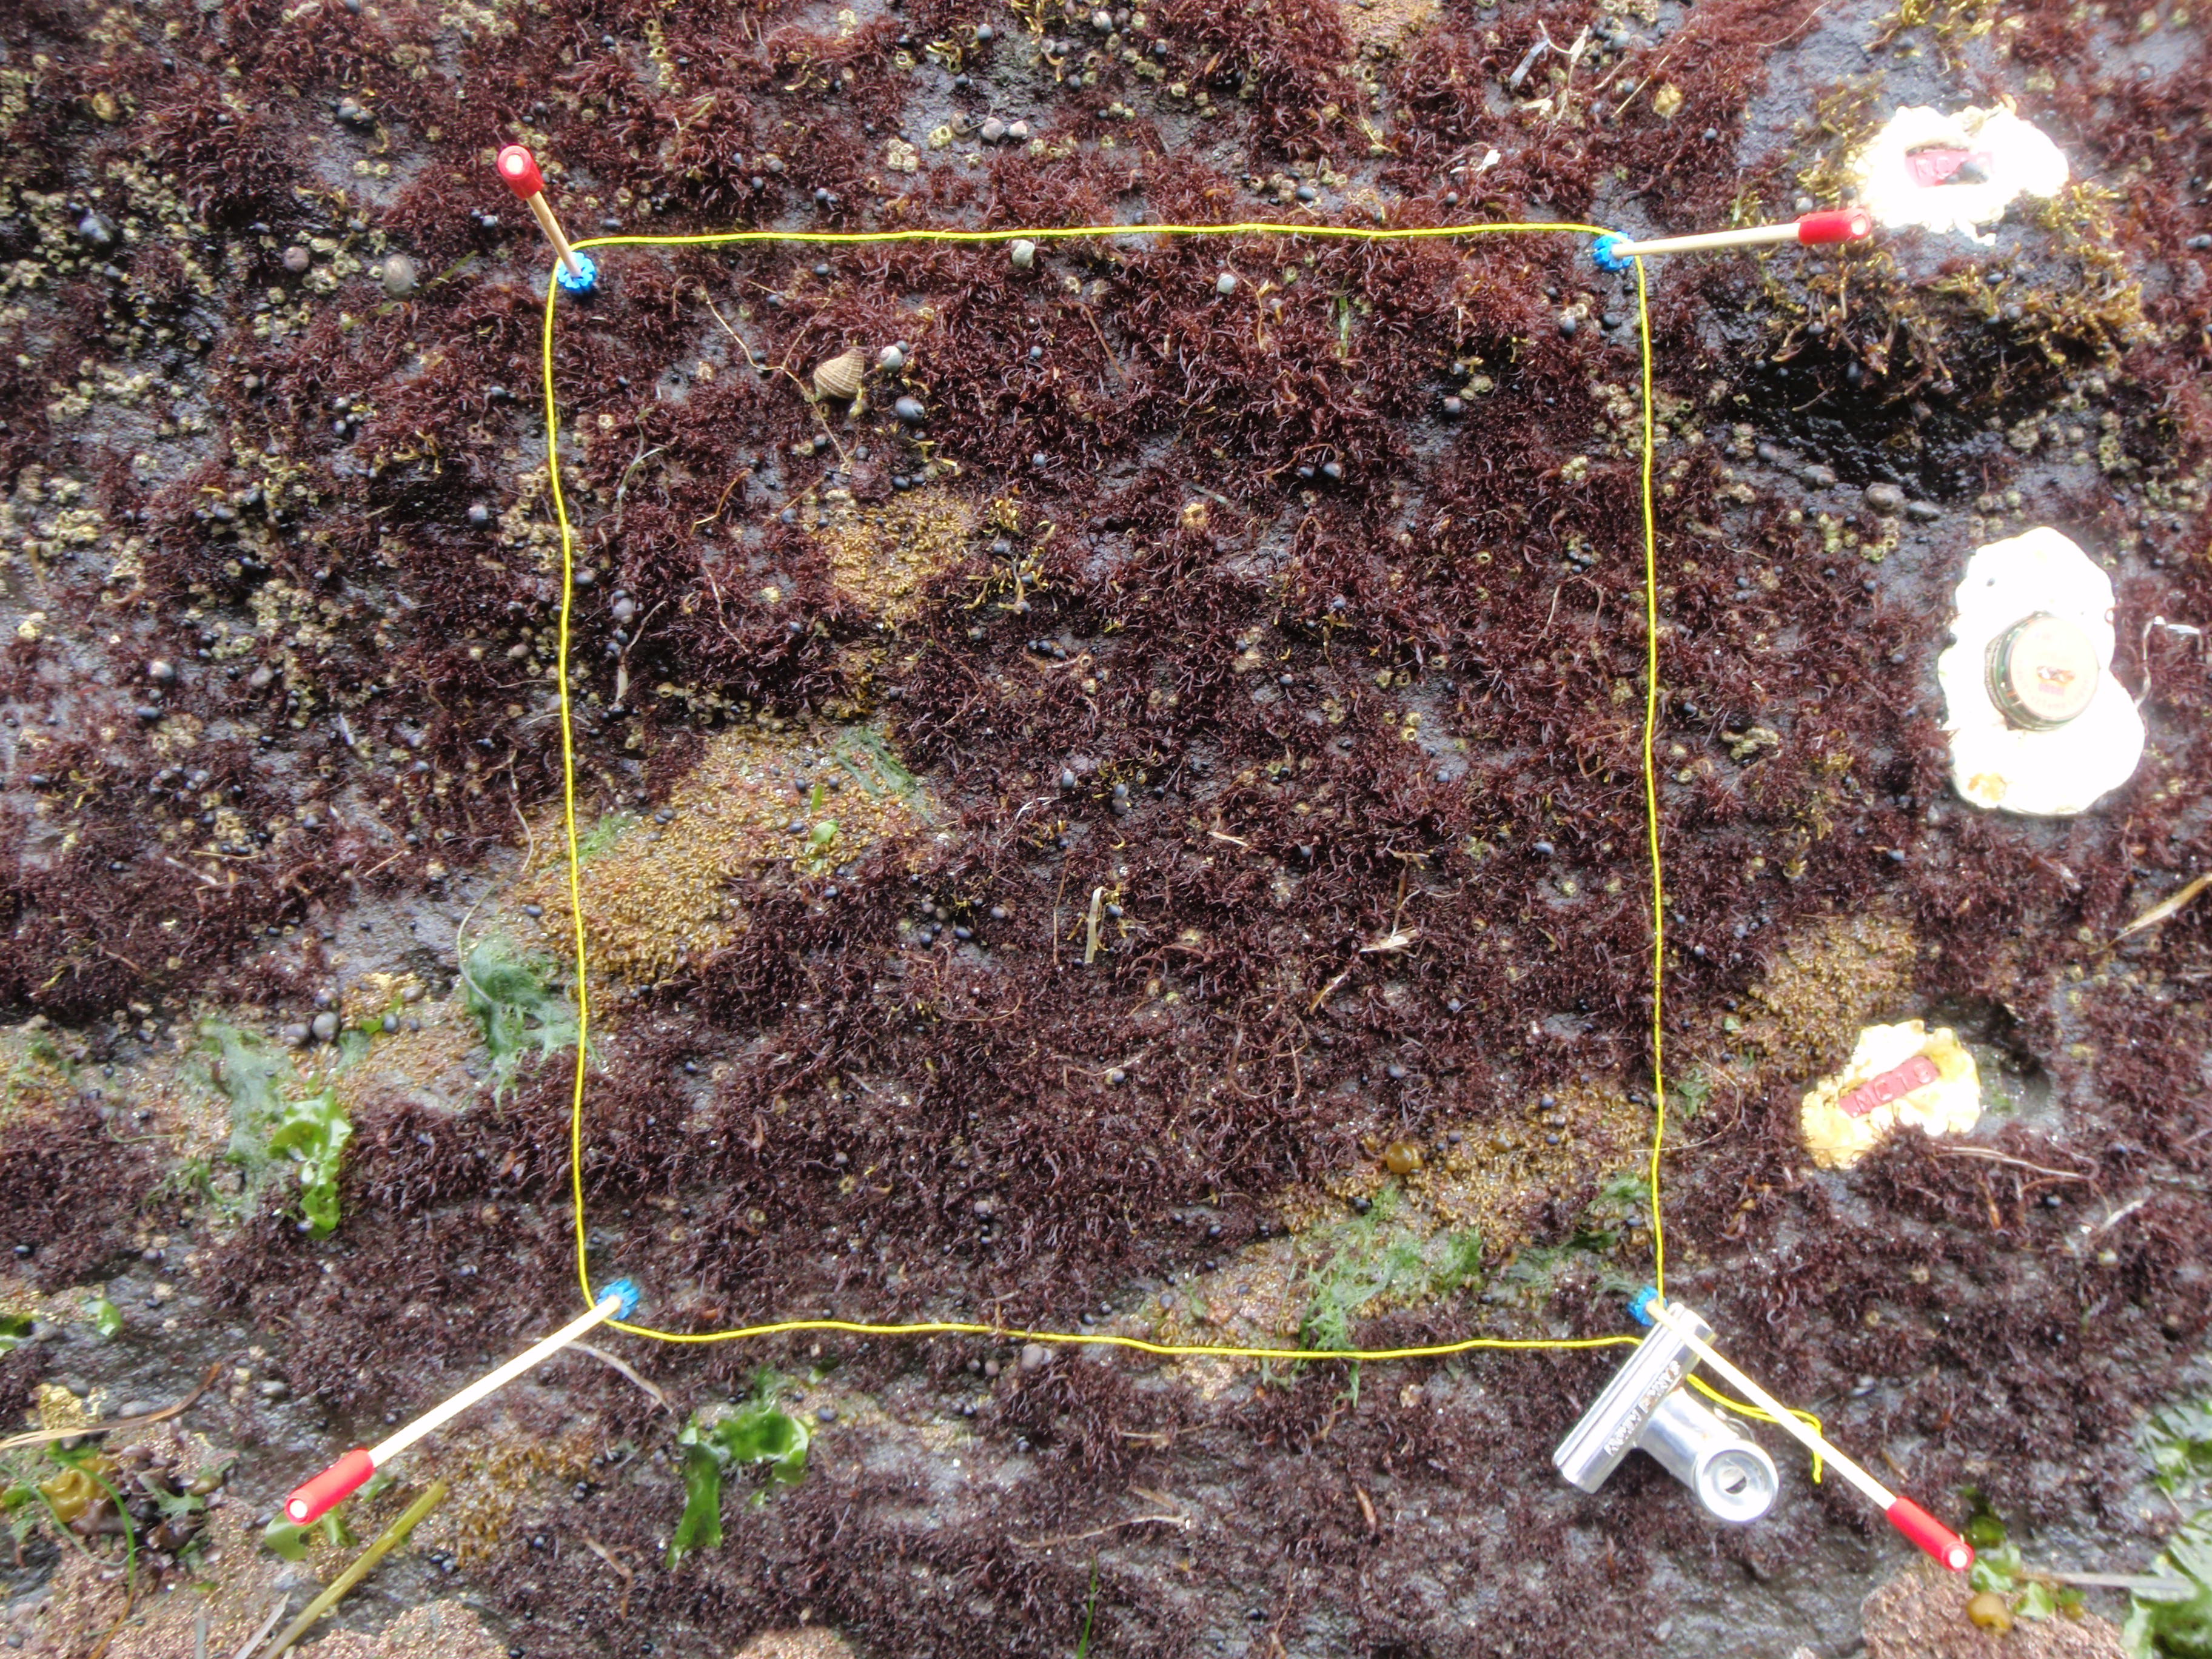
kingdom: Animalia
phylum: Arthropoda
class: Maxillopoda
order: Sessilia
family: Chthamalidae
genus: Chthamalus
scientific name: Chthamalus dalli
